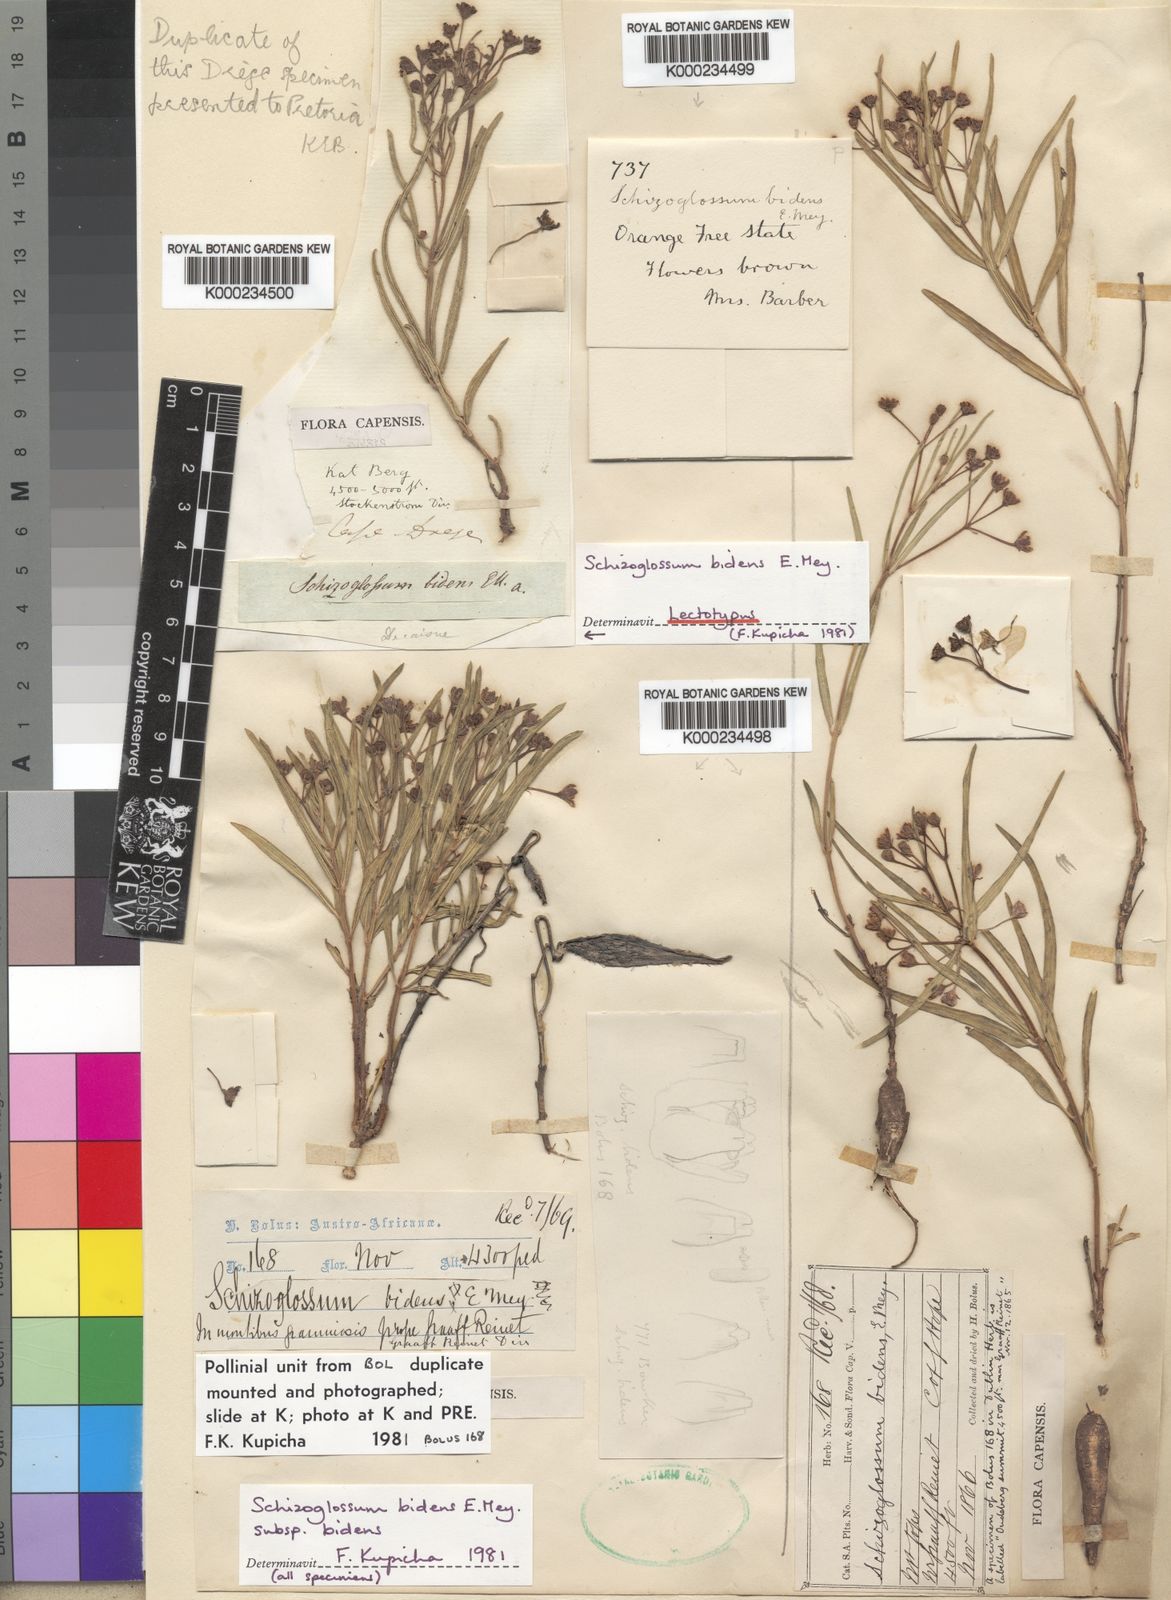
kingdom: Plantae
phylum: Tracheophyta
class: Magnoliopsida
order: Gentianales
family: Apocynaceae
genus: Schizoglossum
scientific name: Schizoglossum bidens
